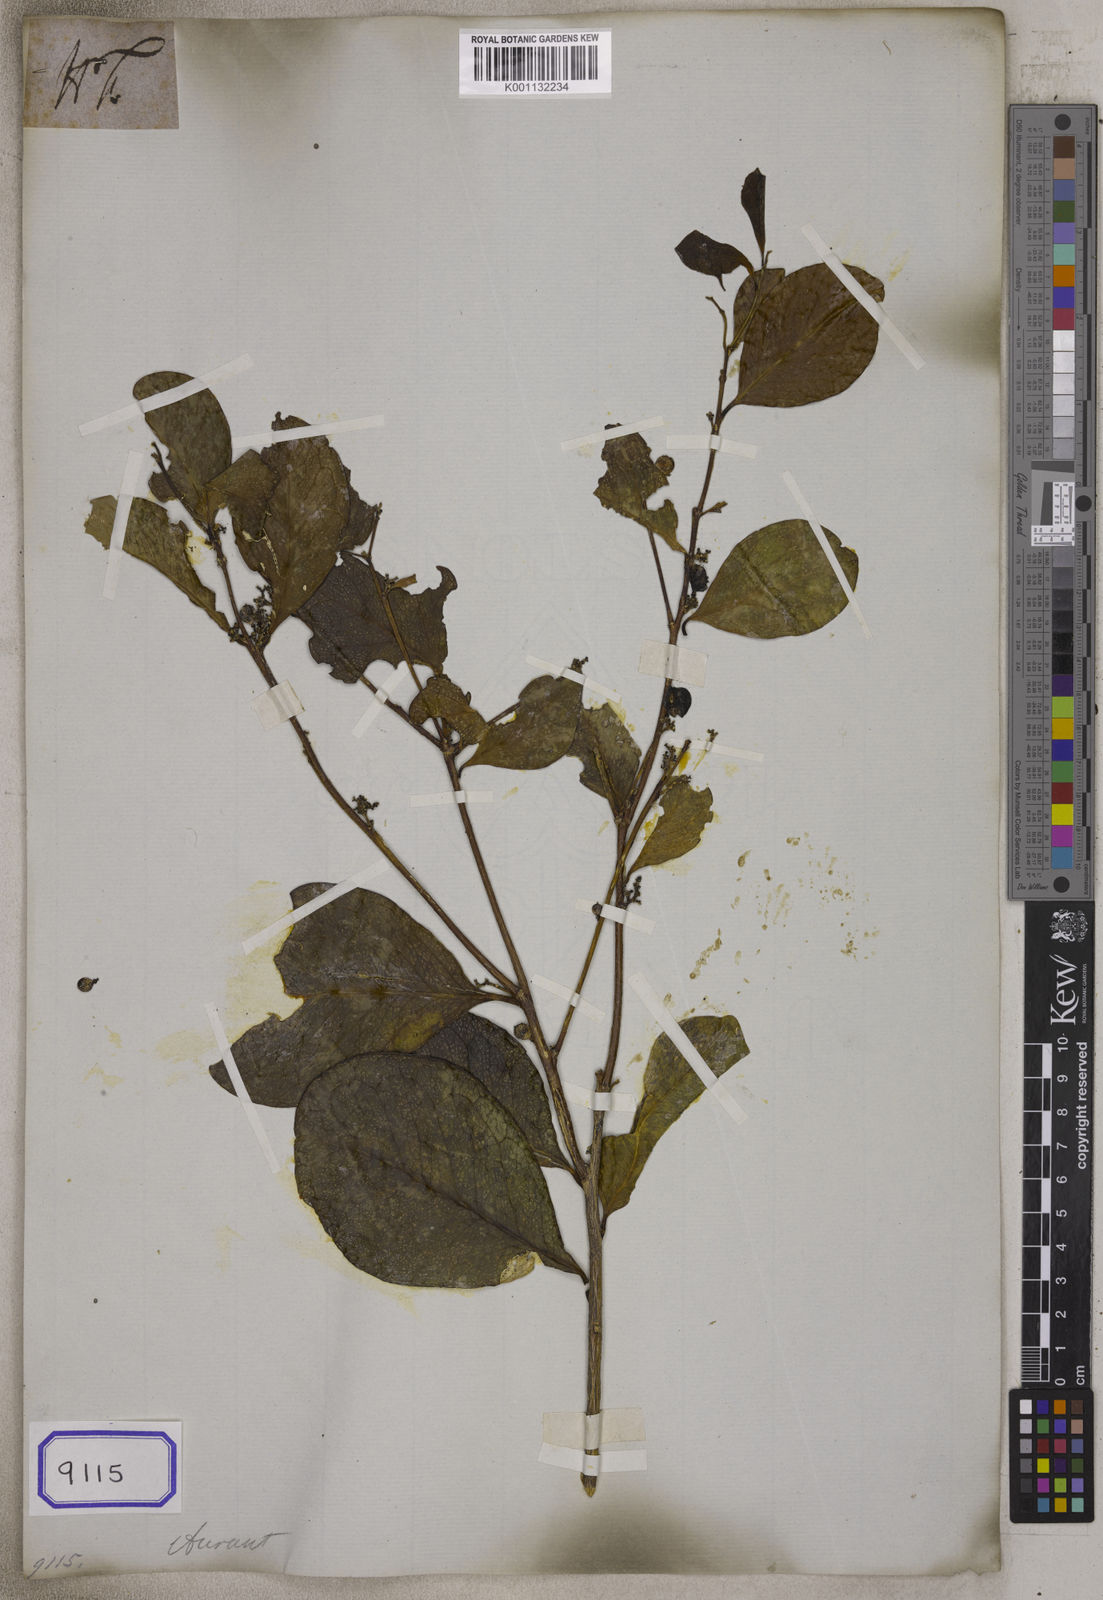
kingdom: Plantae
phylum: Tracheophyta
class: Magnoliopsida
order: Sapindales
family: Rutaceae
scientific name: Rutaceae
